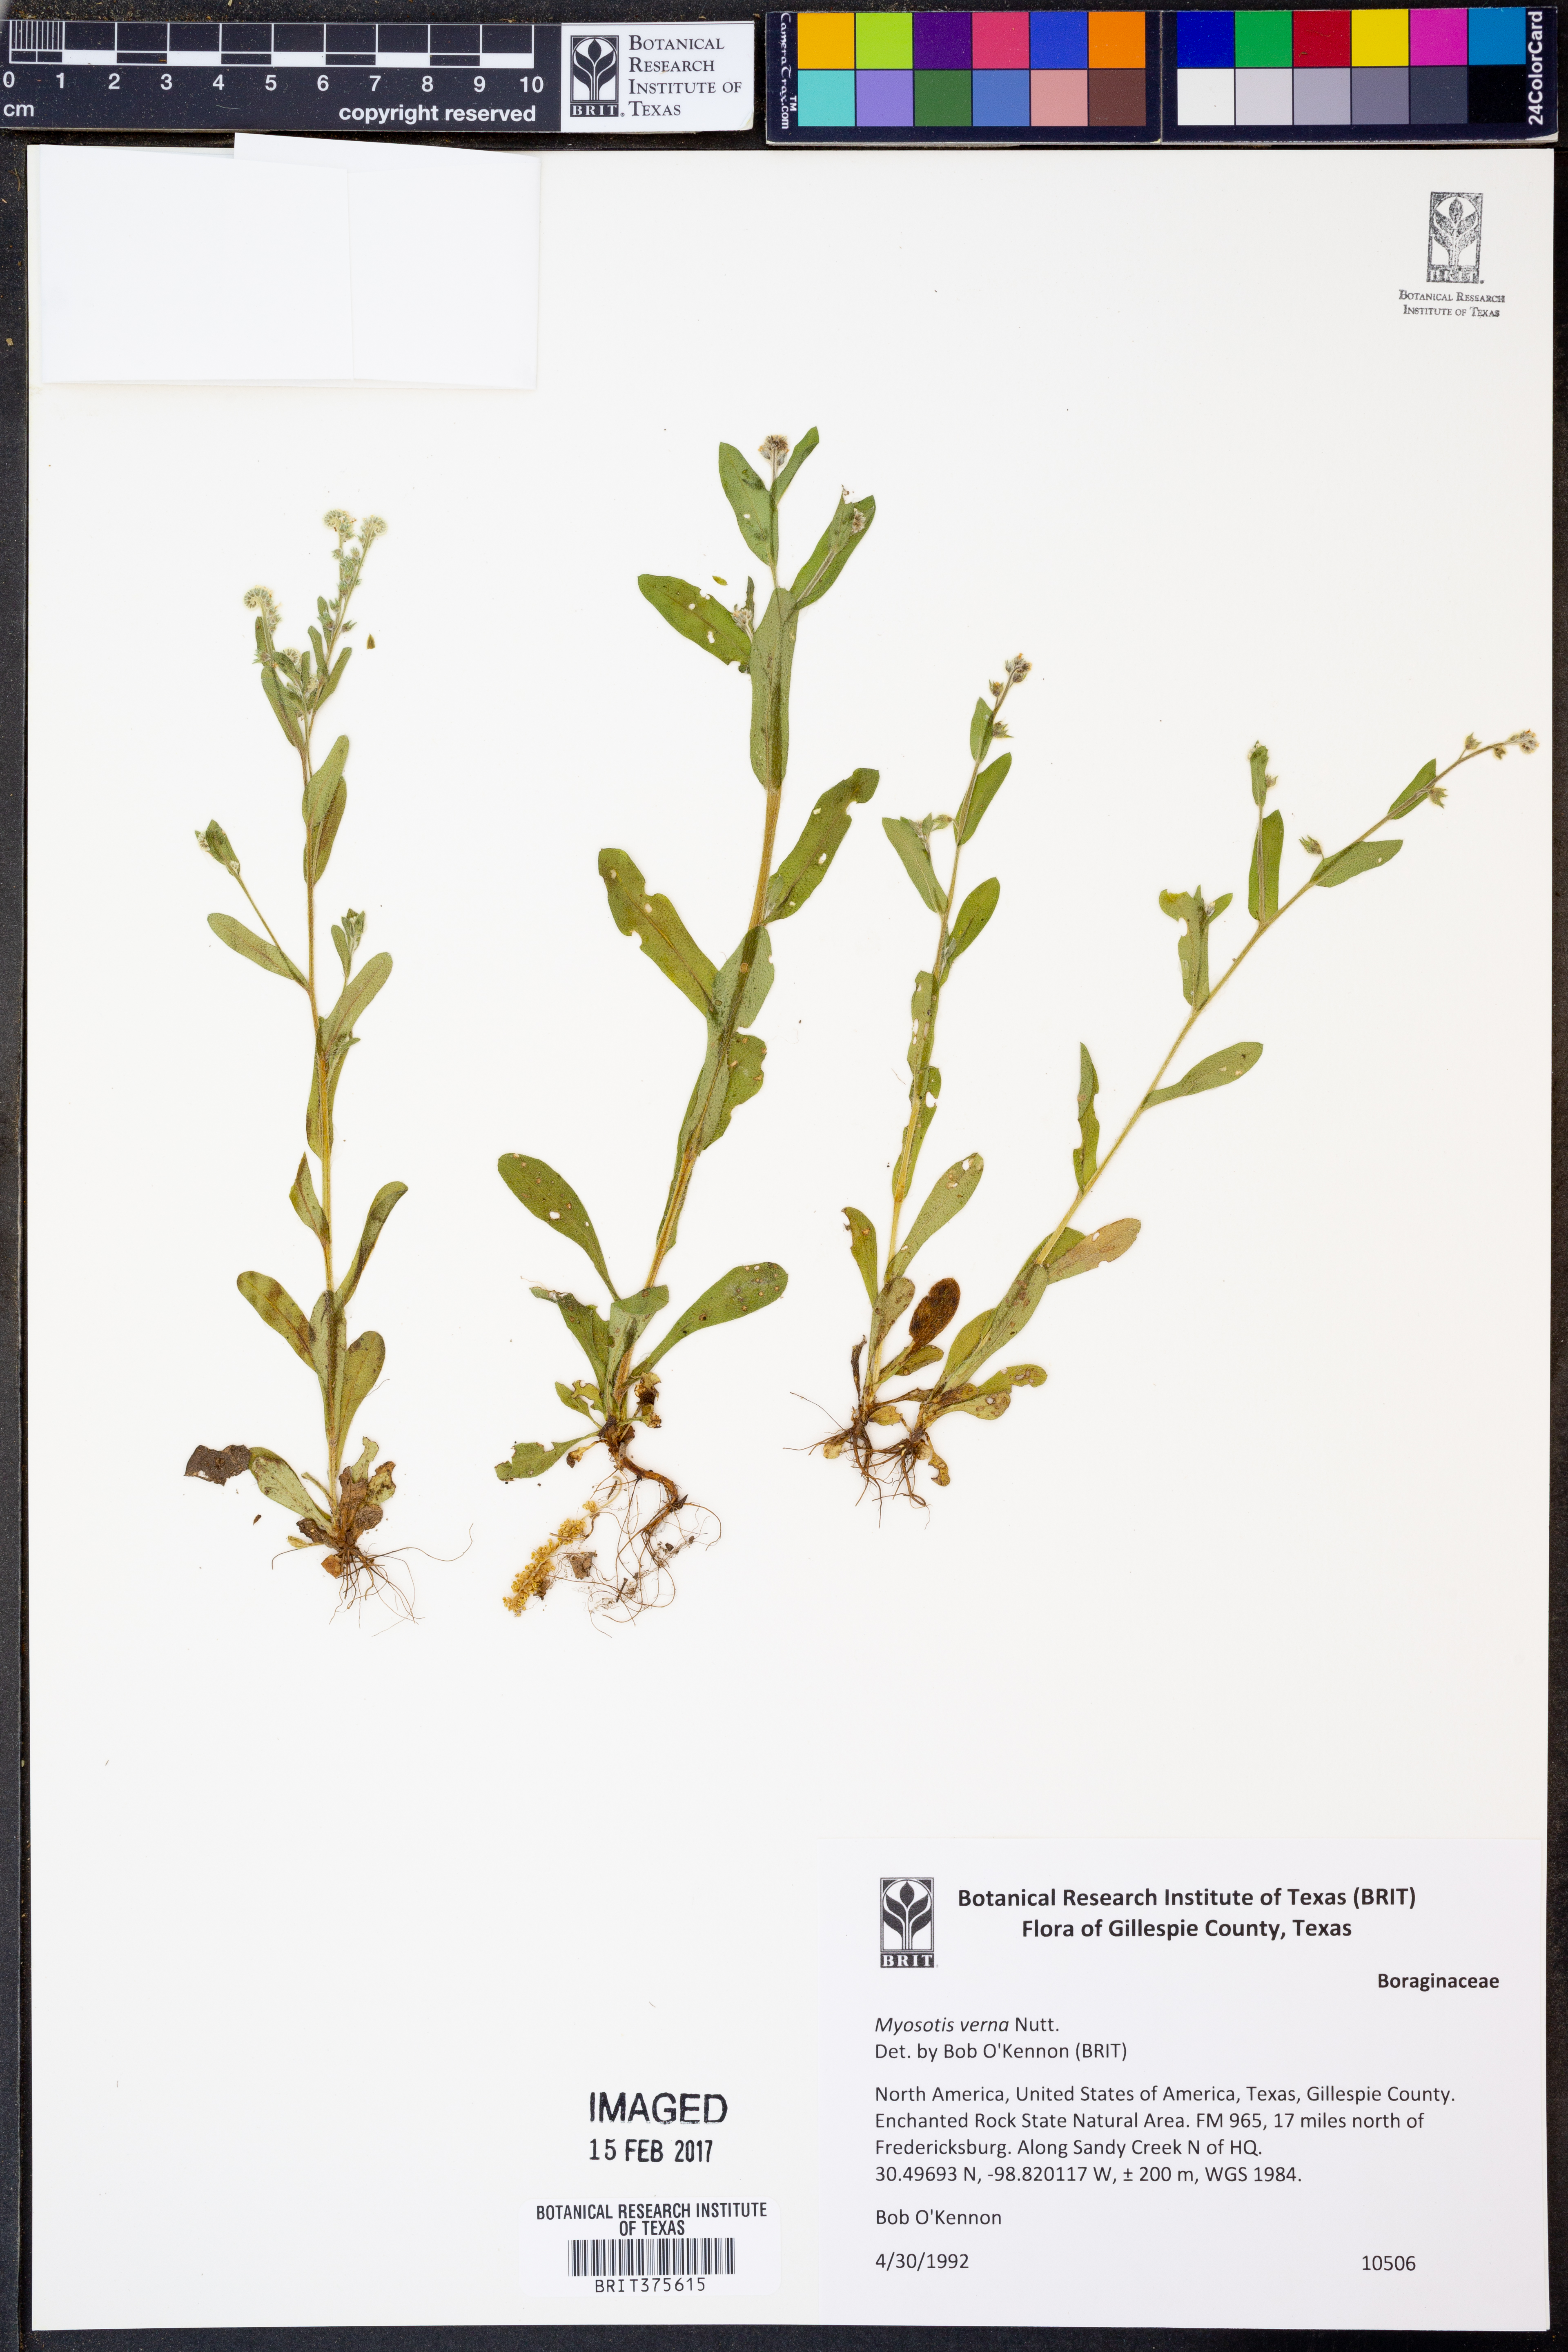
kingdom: Plantae
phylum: Tracheophyta
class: Magnoliopsida
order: Boraginales
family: Boraginaceae
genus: Myosotis
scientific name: Myosotis verna
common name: Early forget-me-not
